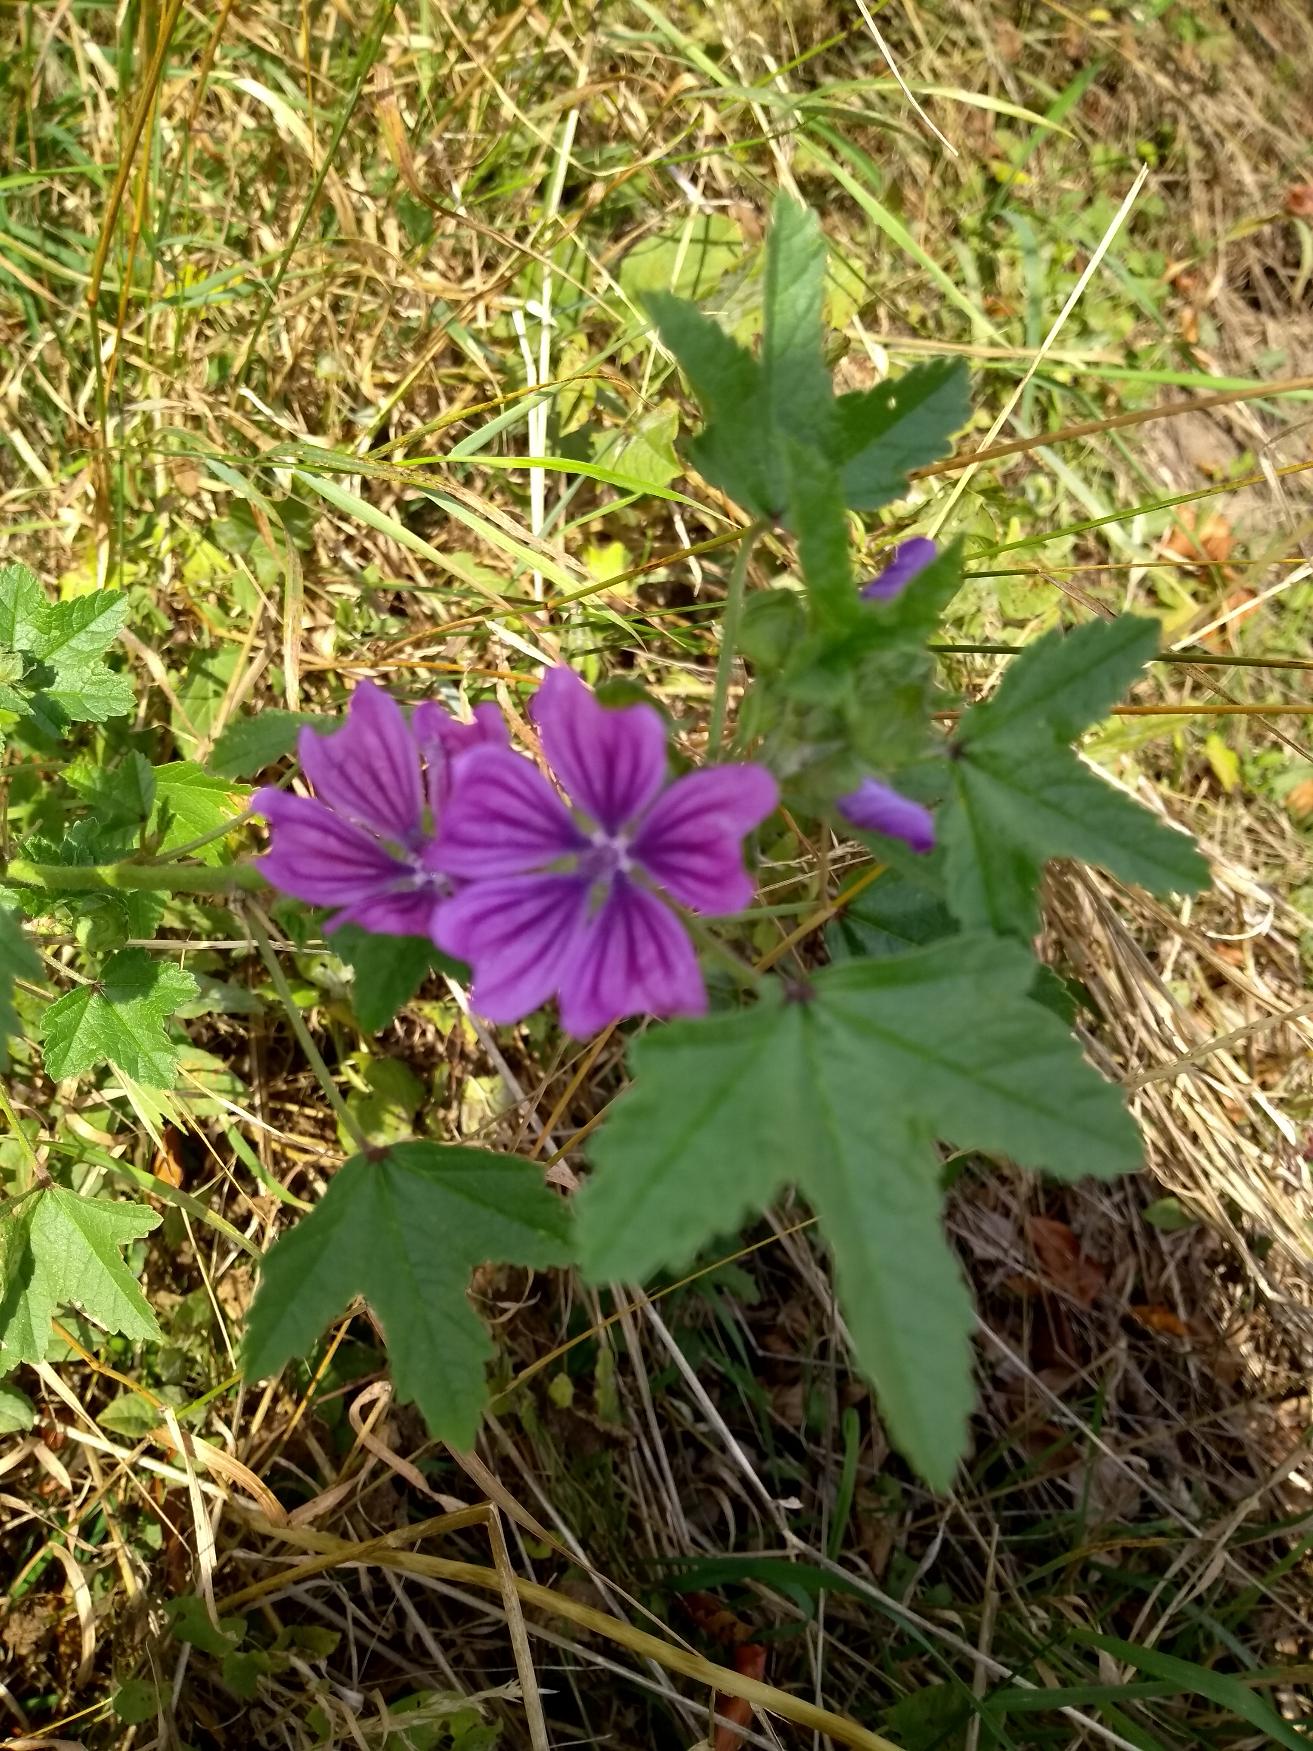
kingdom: Plantae
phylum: Tracheophyta
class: Magnoliopsida
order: Malvales
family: Malvaceae
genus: Malva
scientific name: Malva sylvestris
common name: Almindelig katost
